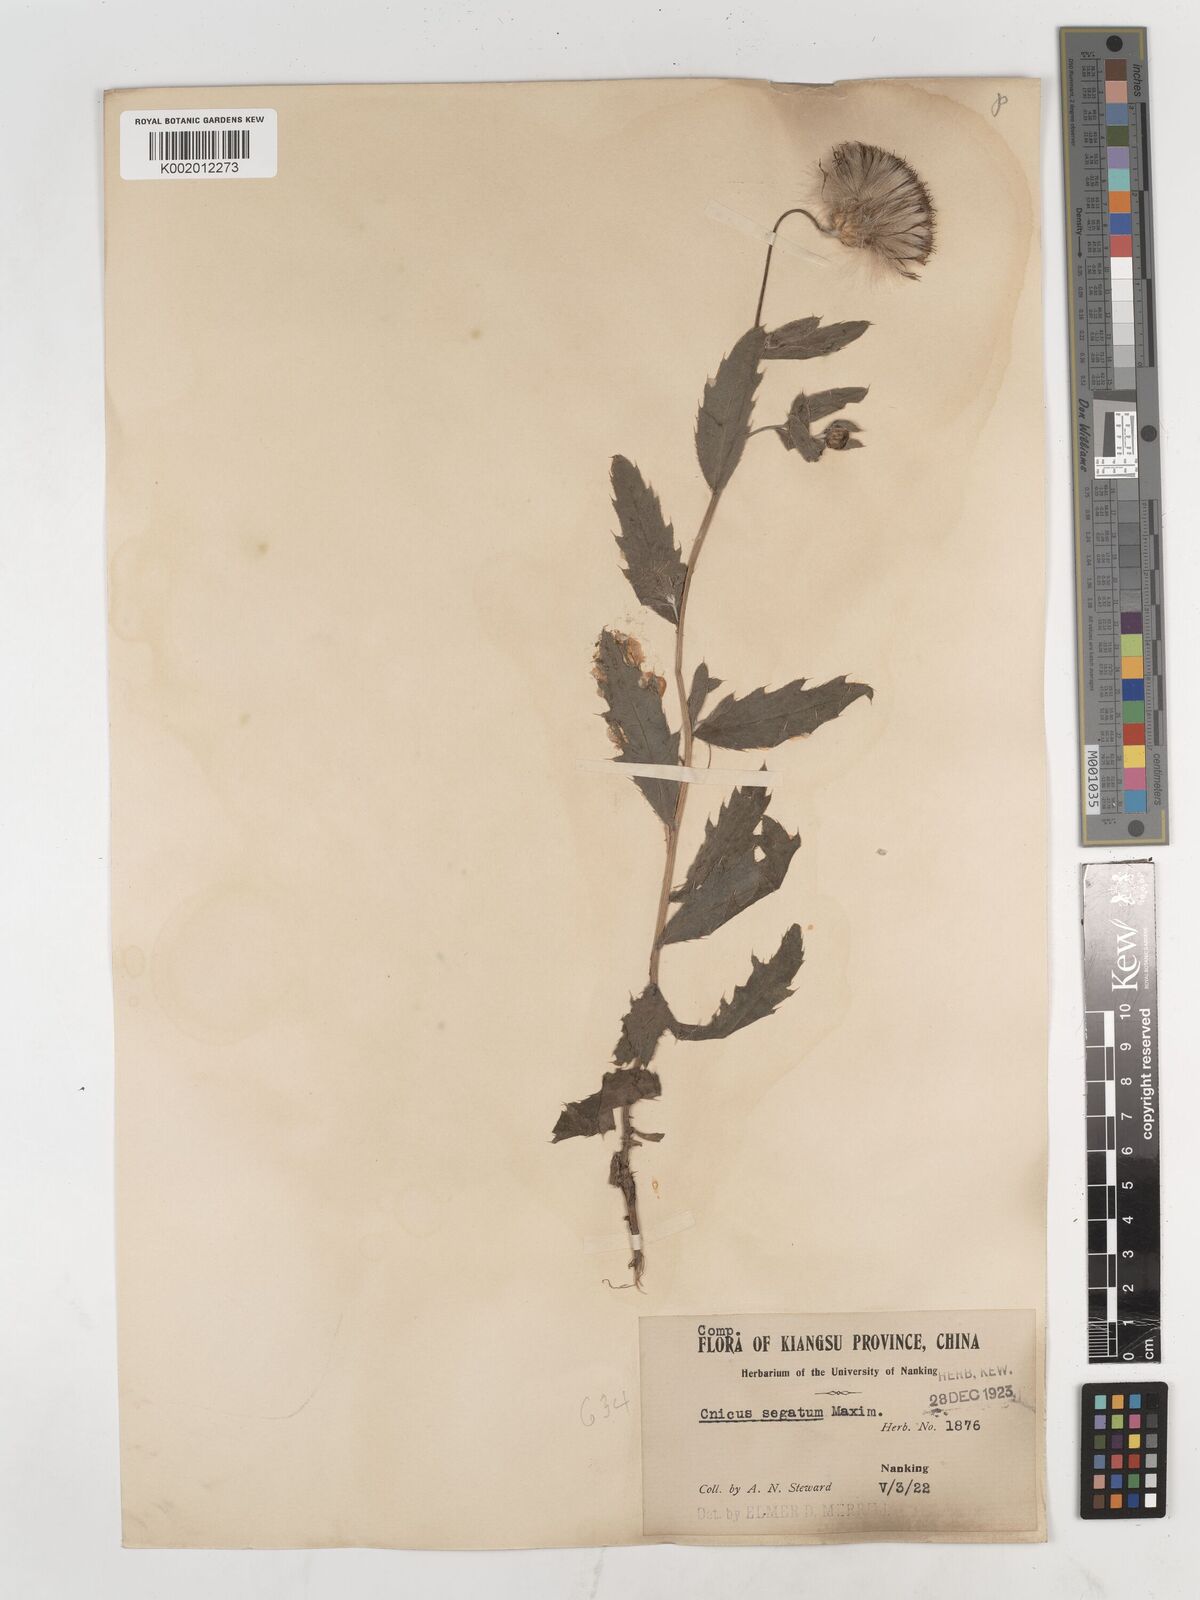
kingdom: Plantae
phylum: Tracheophyta
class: Magnoliopsida
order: Asterales
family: Asteraceae
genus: Cirsium
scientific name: Cirsium arvense
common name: Creeping thistle
